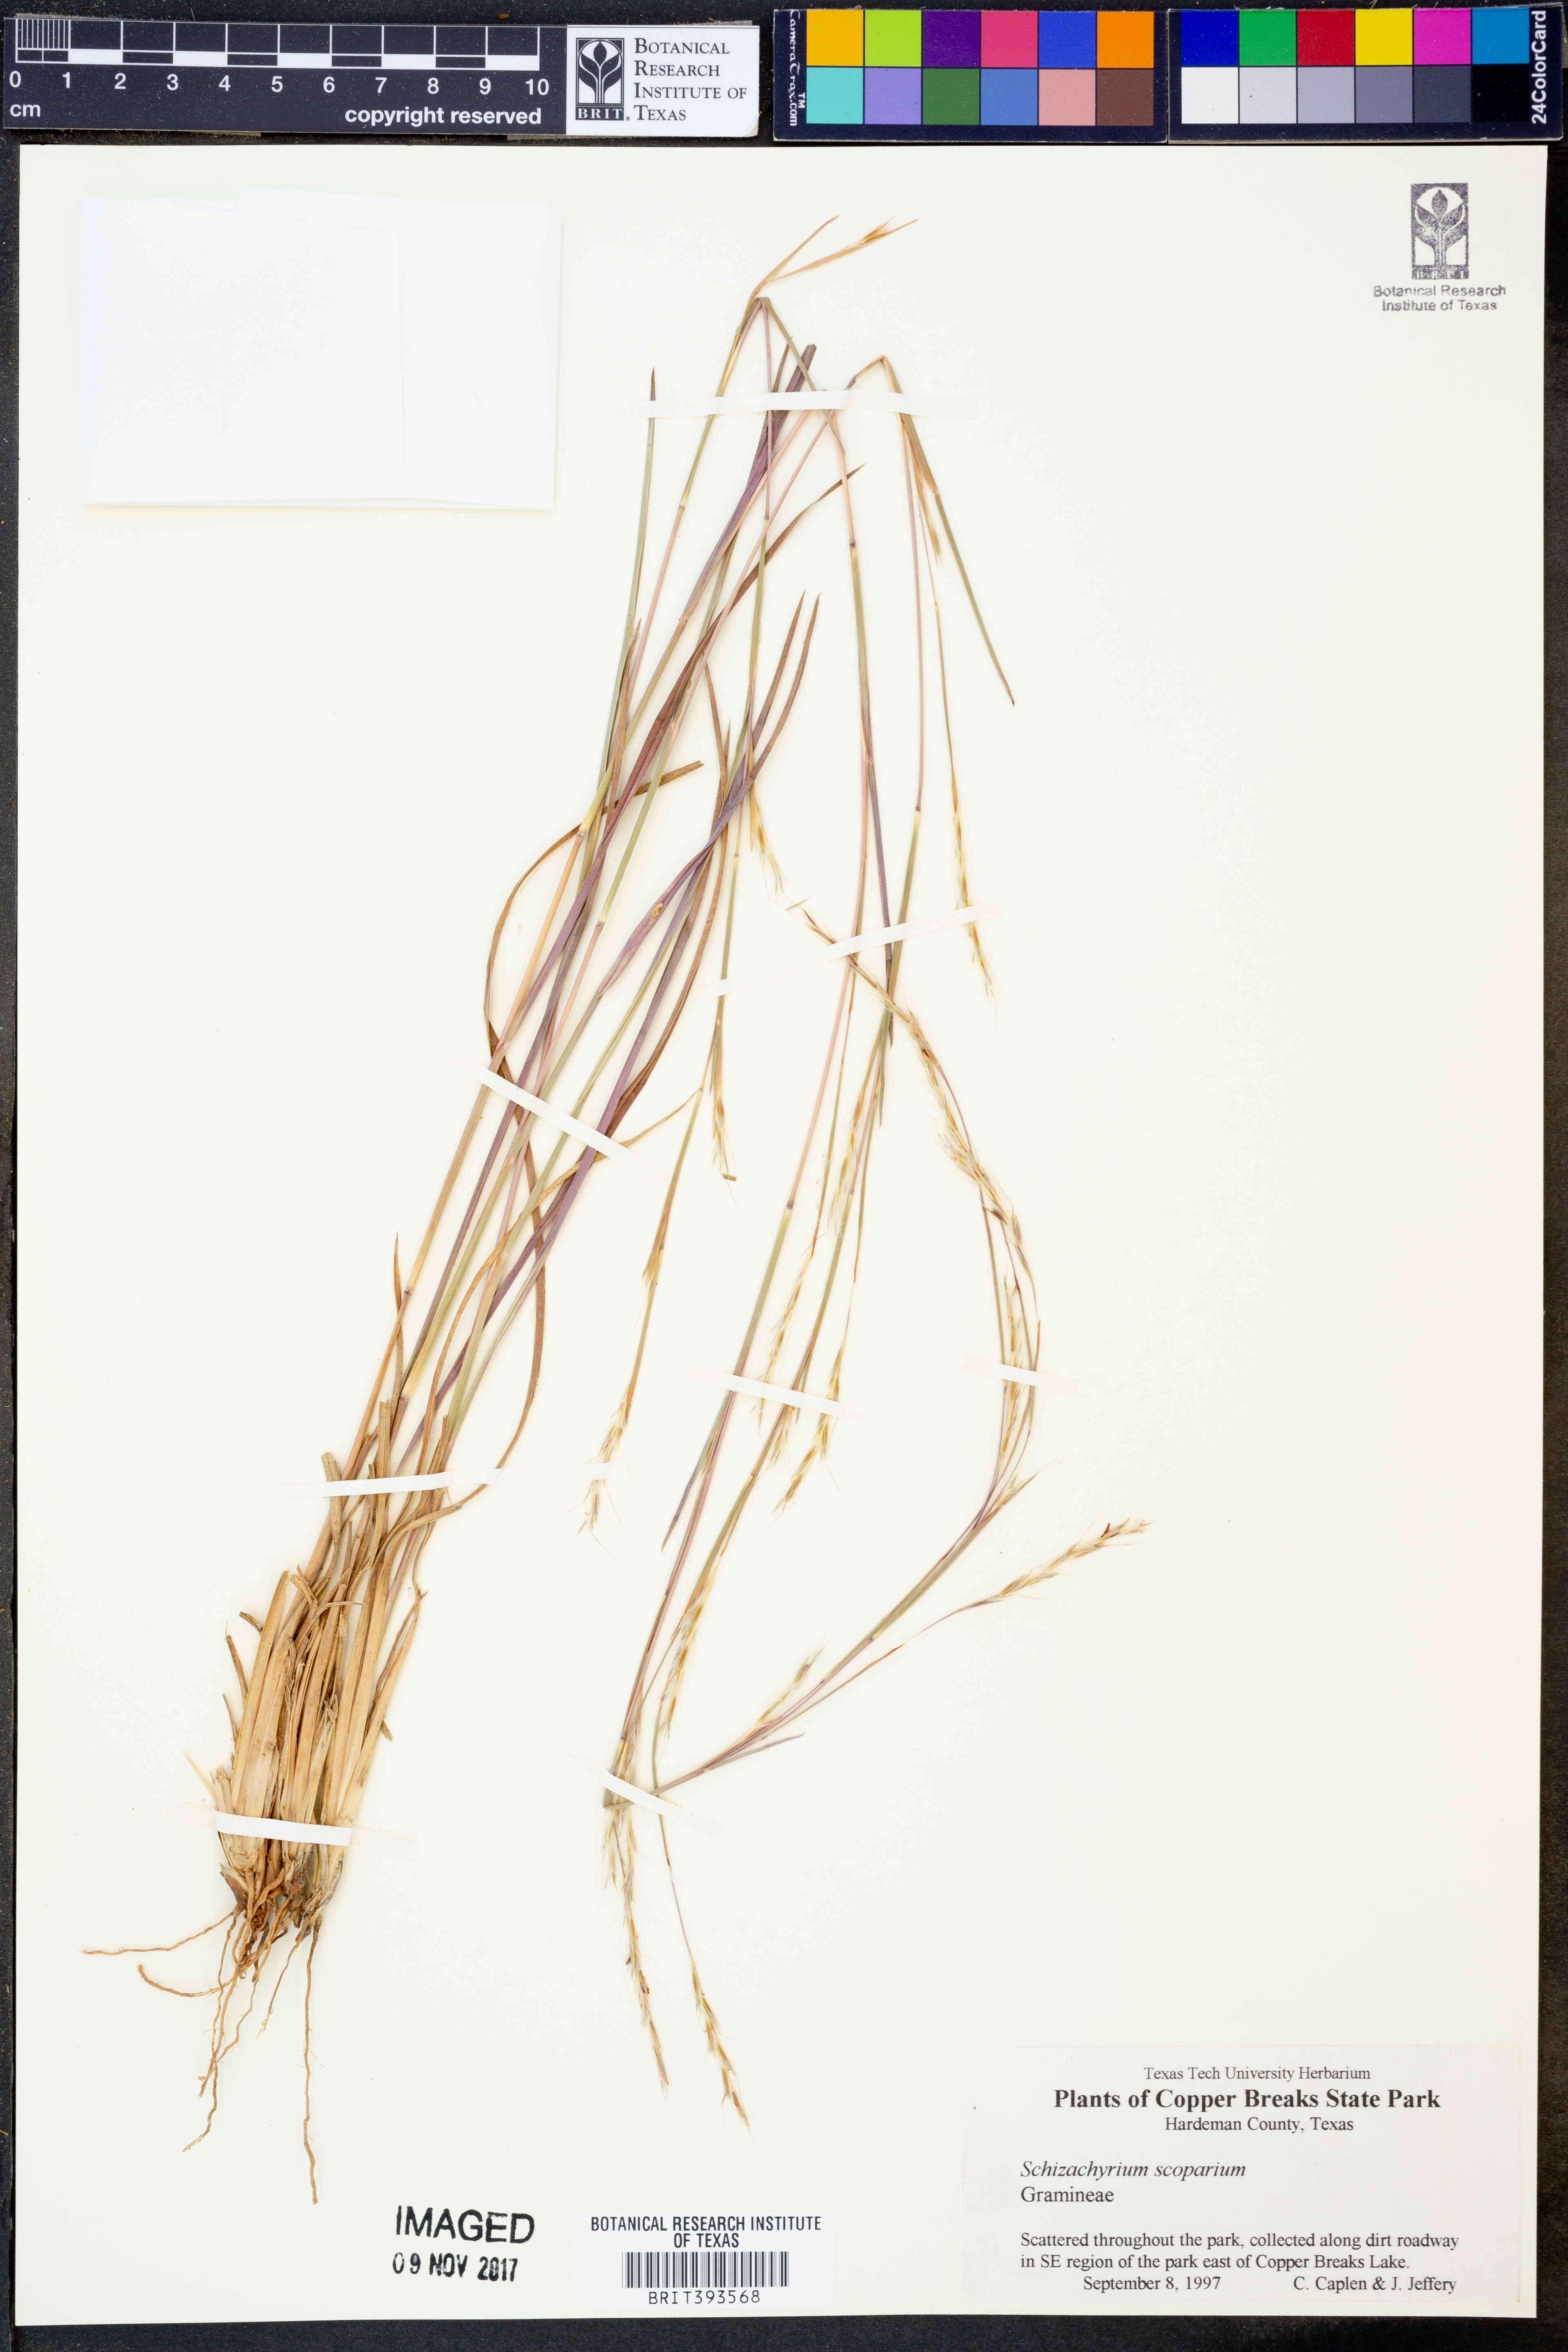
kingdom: Plantae
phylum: Tracheophyta
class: Liliopsida
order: Poales
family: Poaceae
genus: Schizachyrium
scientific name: Schizachyrium scoparium
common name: Little bluestem
